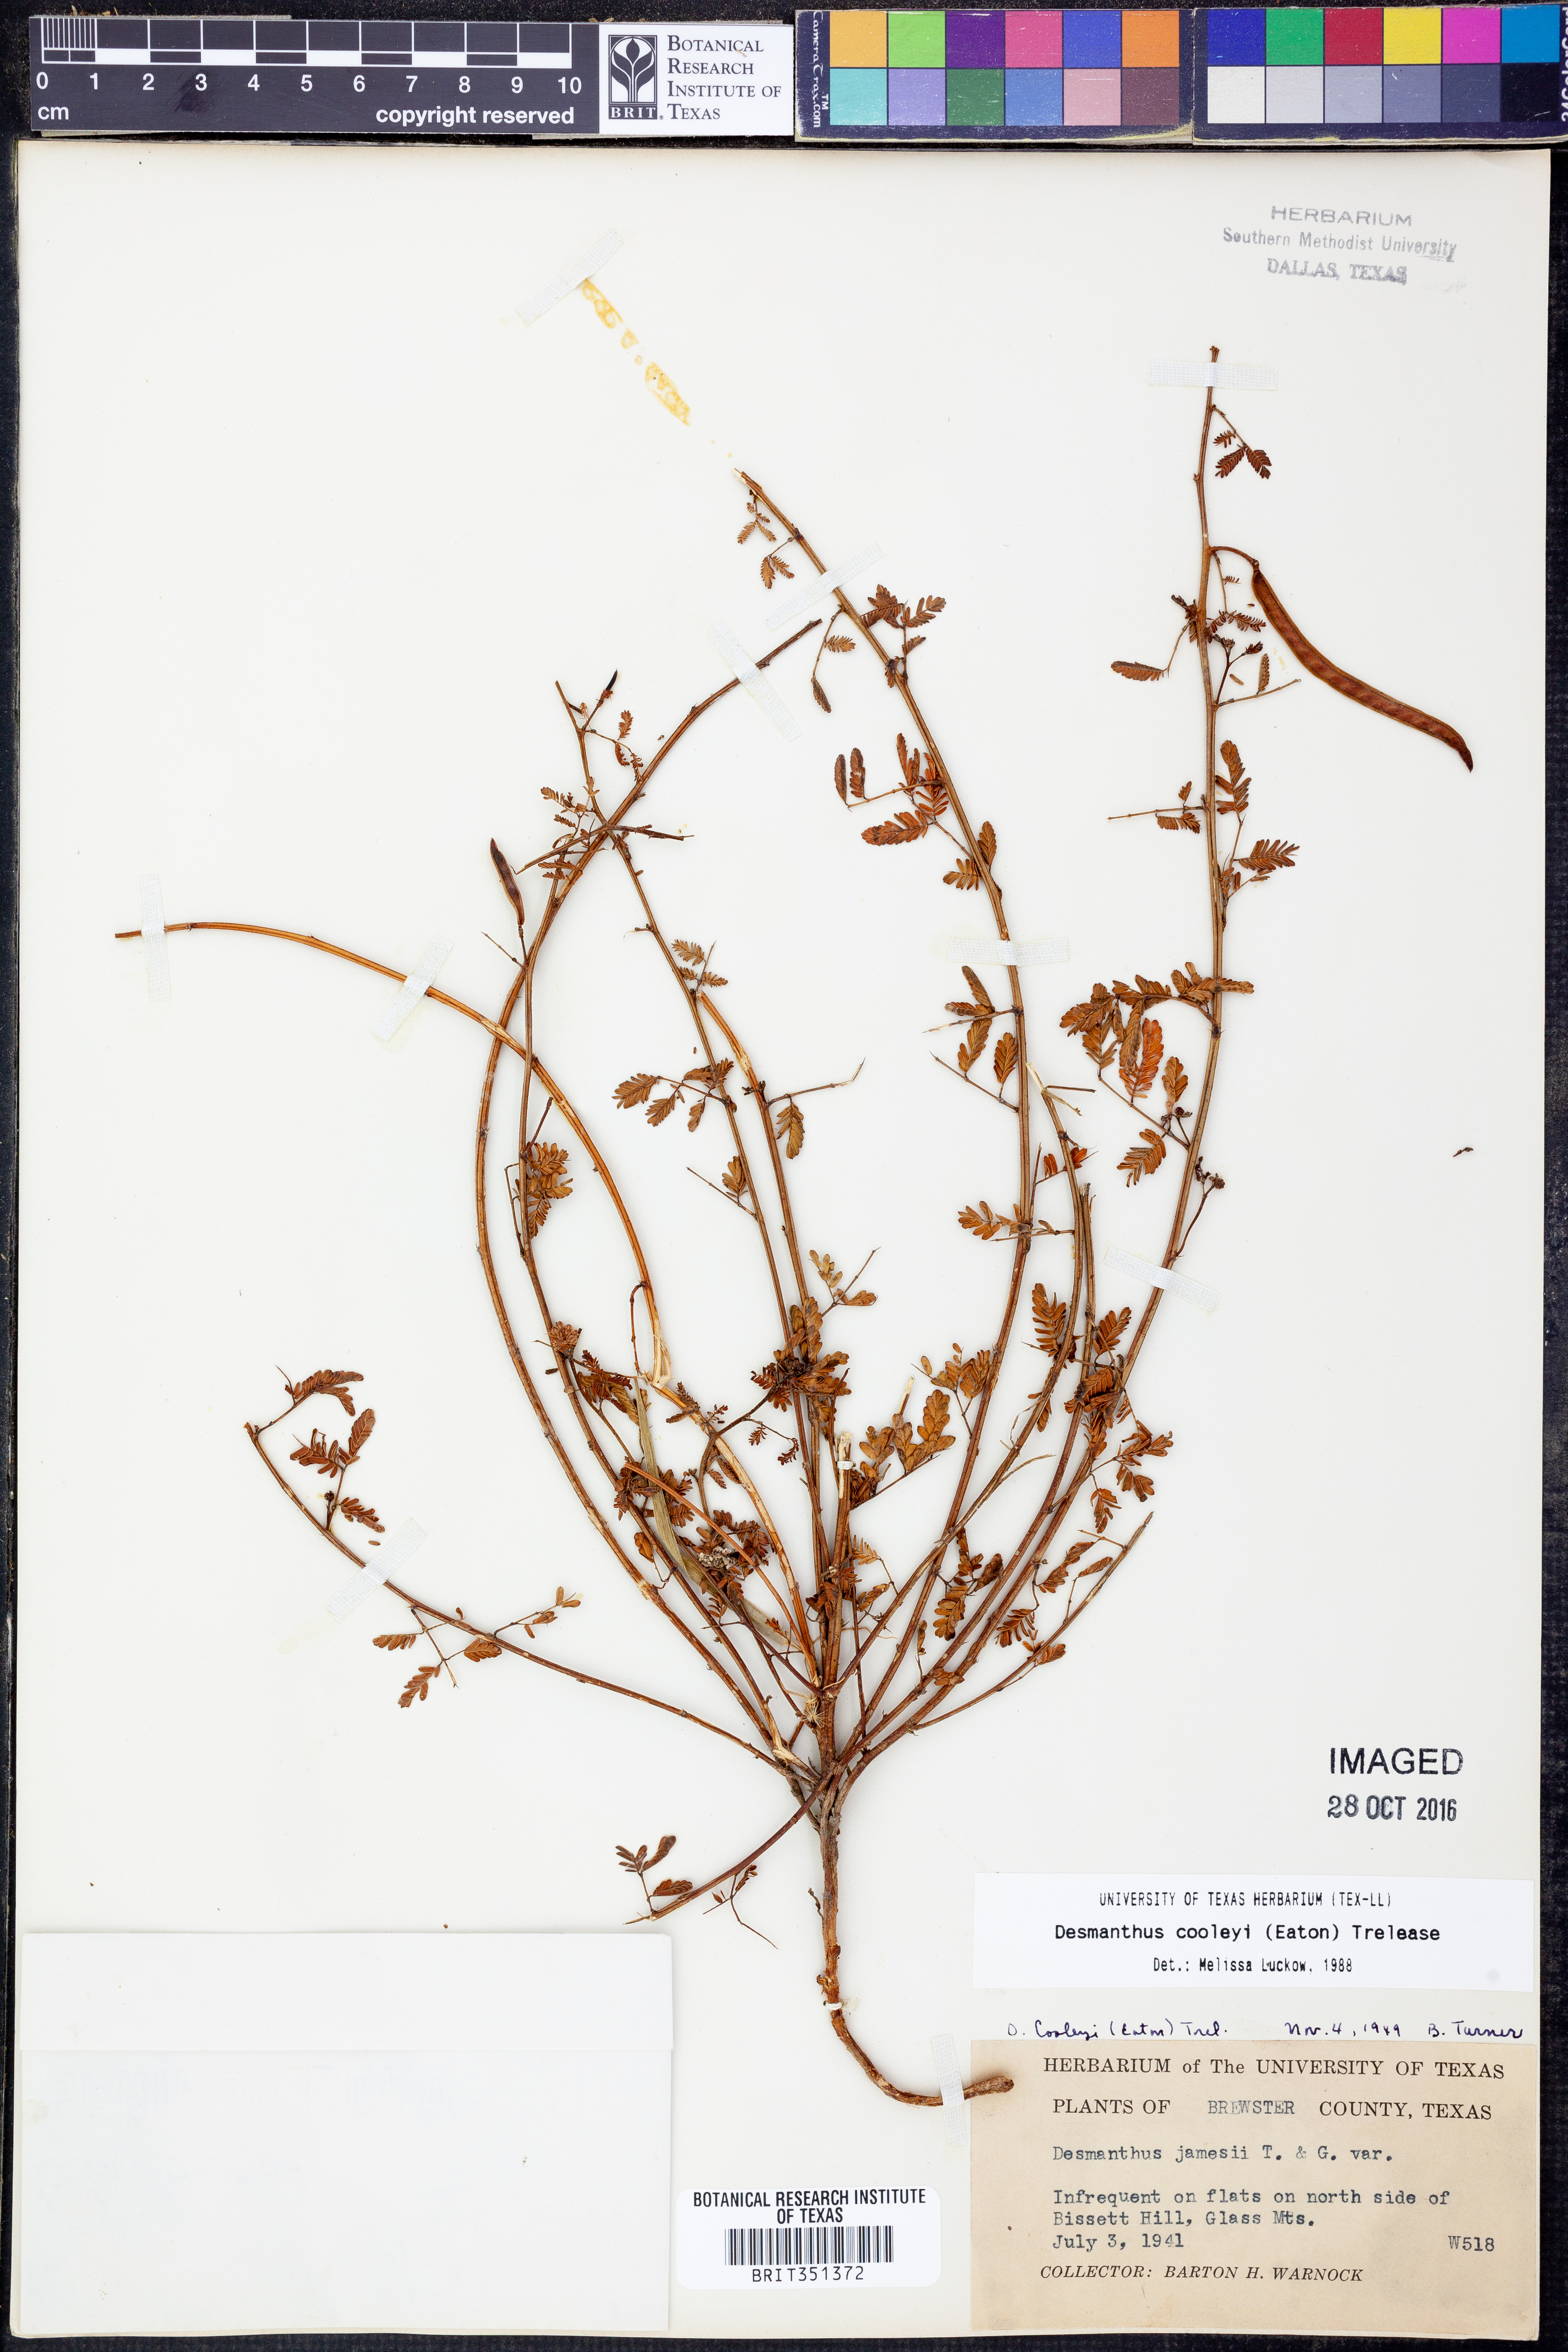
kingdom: Plantae
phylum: Tracheophyta
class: Magnoliopsida
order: Fabales
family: Fabaceae
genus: Desmanthus
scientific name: Desmanthus cooleyi
